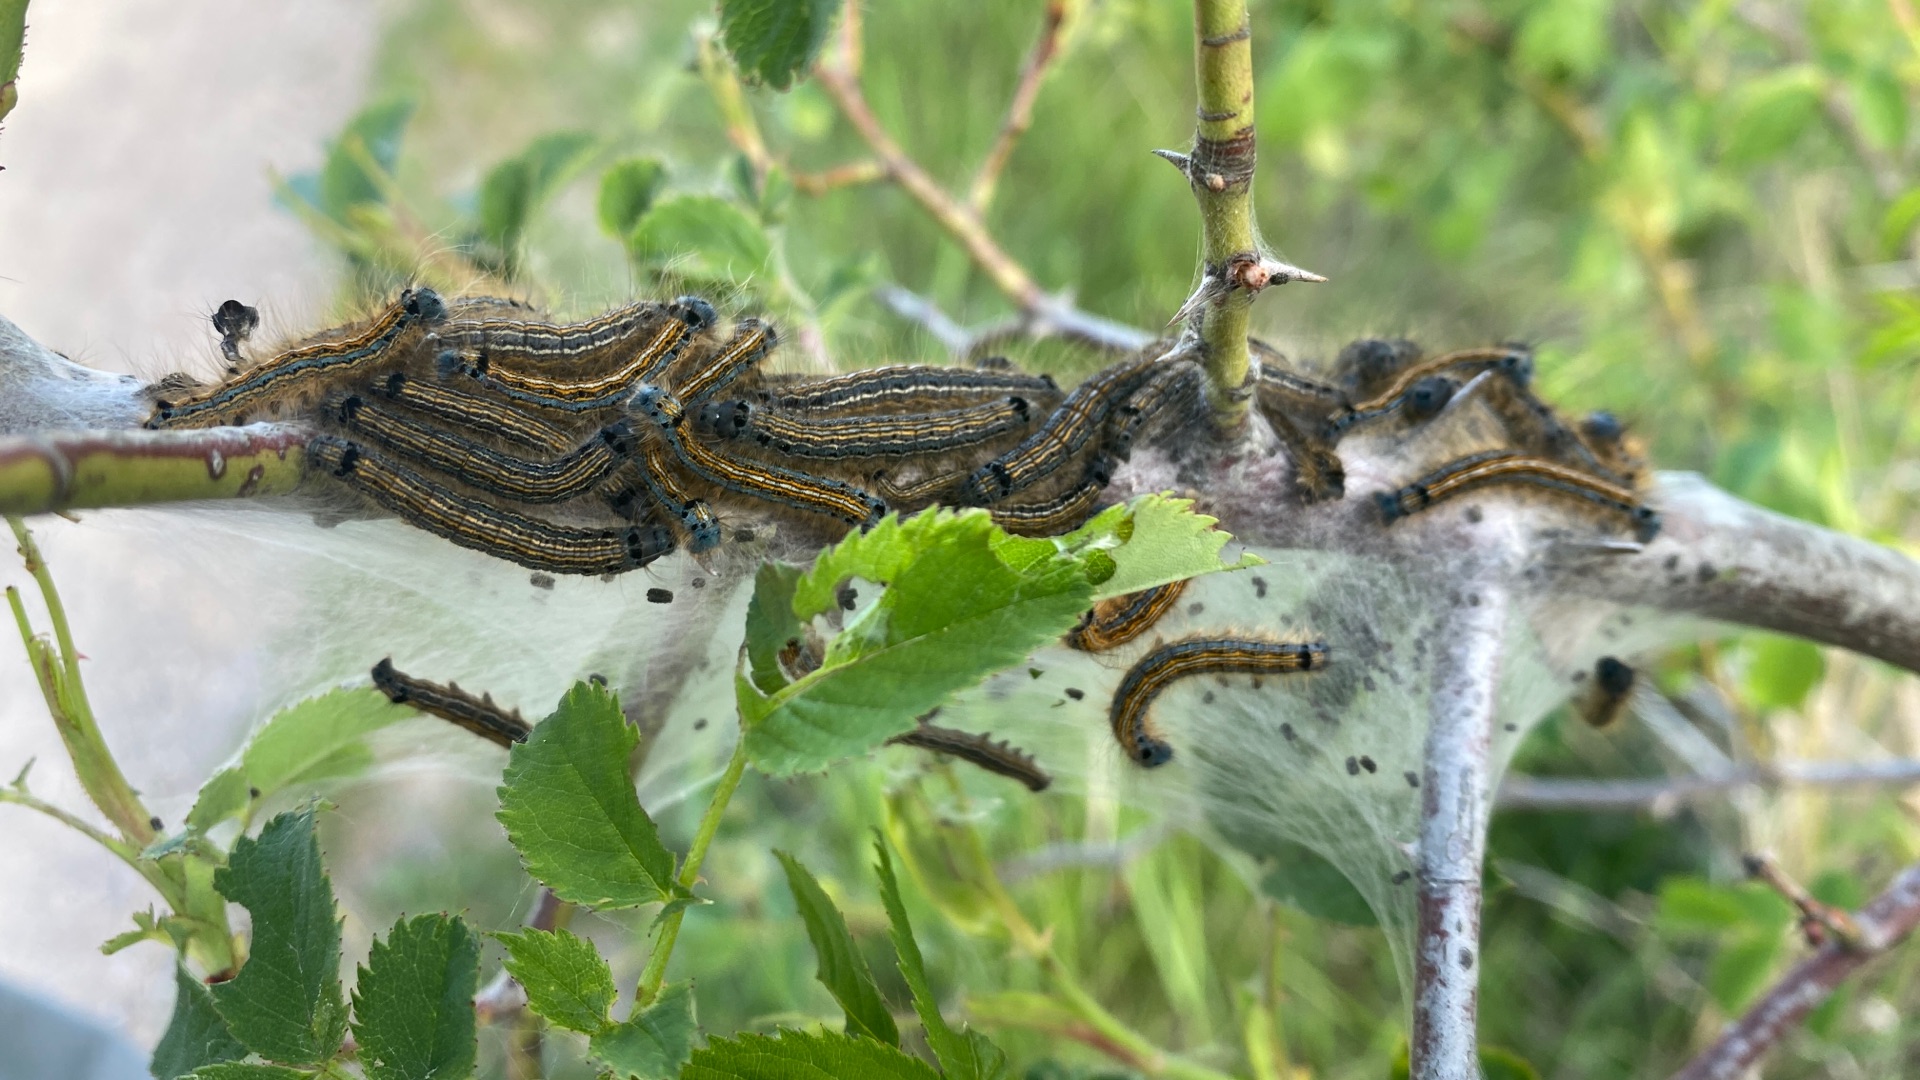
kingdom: Animalia
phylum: Arthropoda
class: Insecta
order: Lepidoptera
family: Lasiocampidae
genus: Malacosoma
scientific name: Malacosoma neustria
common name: Ringspinder
